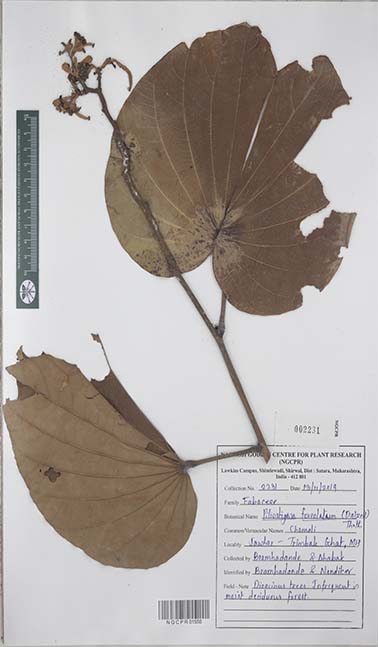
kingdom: Plantae
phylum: Tracheophyta
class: Magnoliopsida
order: Fabales
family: Fabaceae
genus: Piliostigma
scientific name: Piliostigma foveolatum
